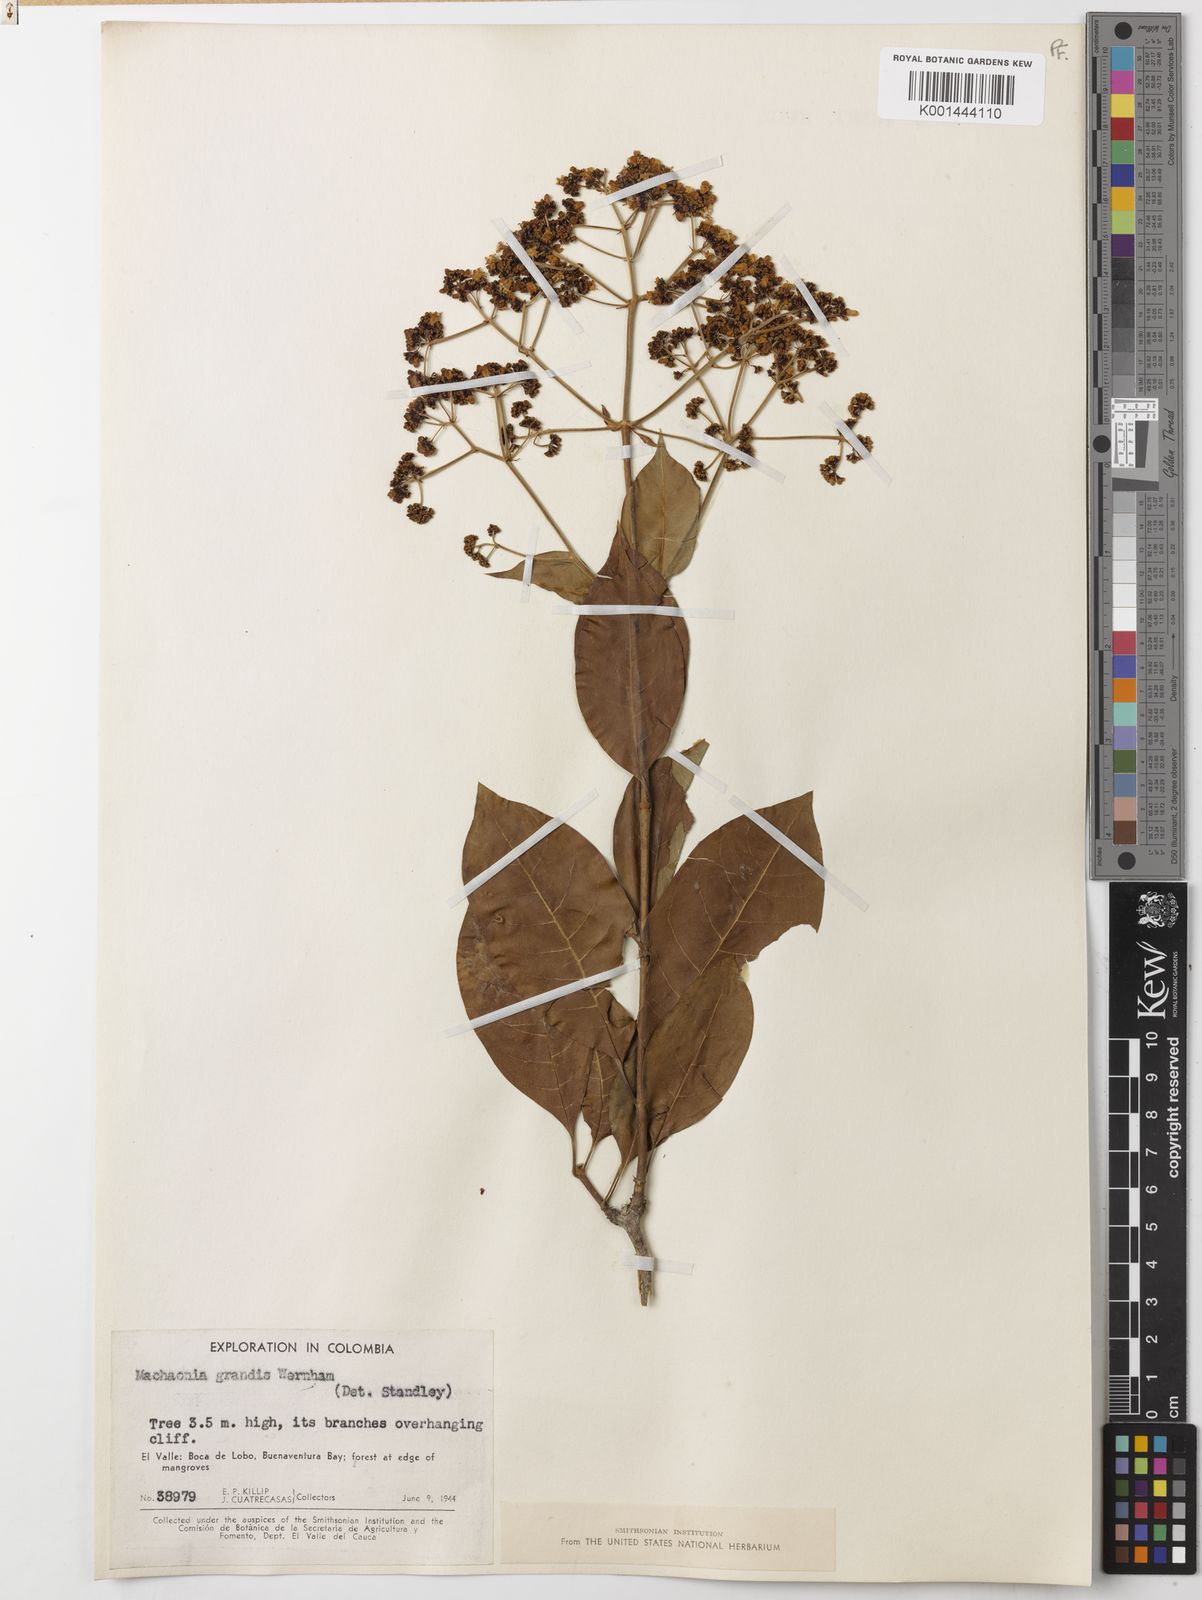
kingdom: Plantae
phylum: Tracheophyta
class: Magnoliopsida
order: Gentianales
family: Rubiaceae
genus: Machaonia
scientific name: Machaonia grandis
